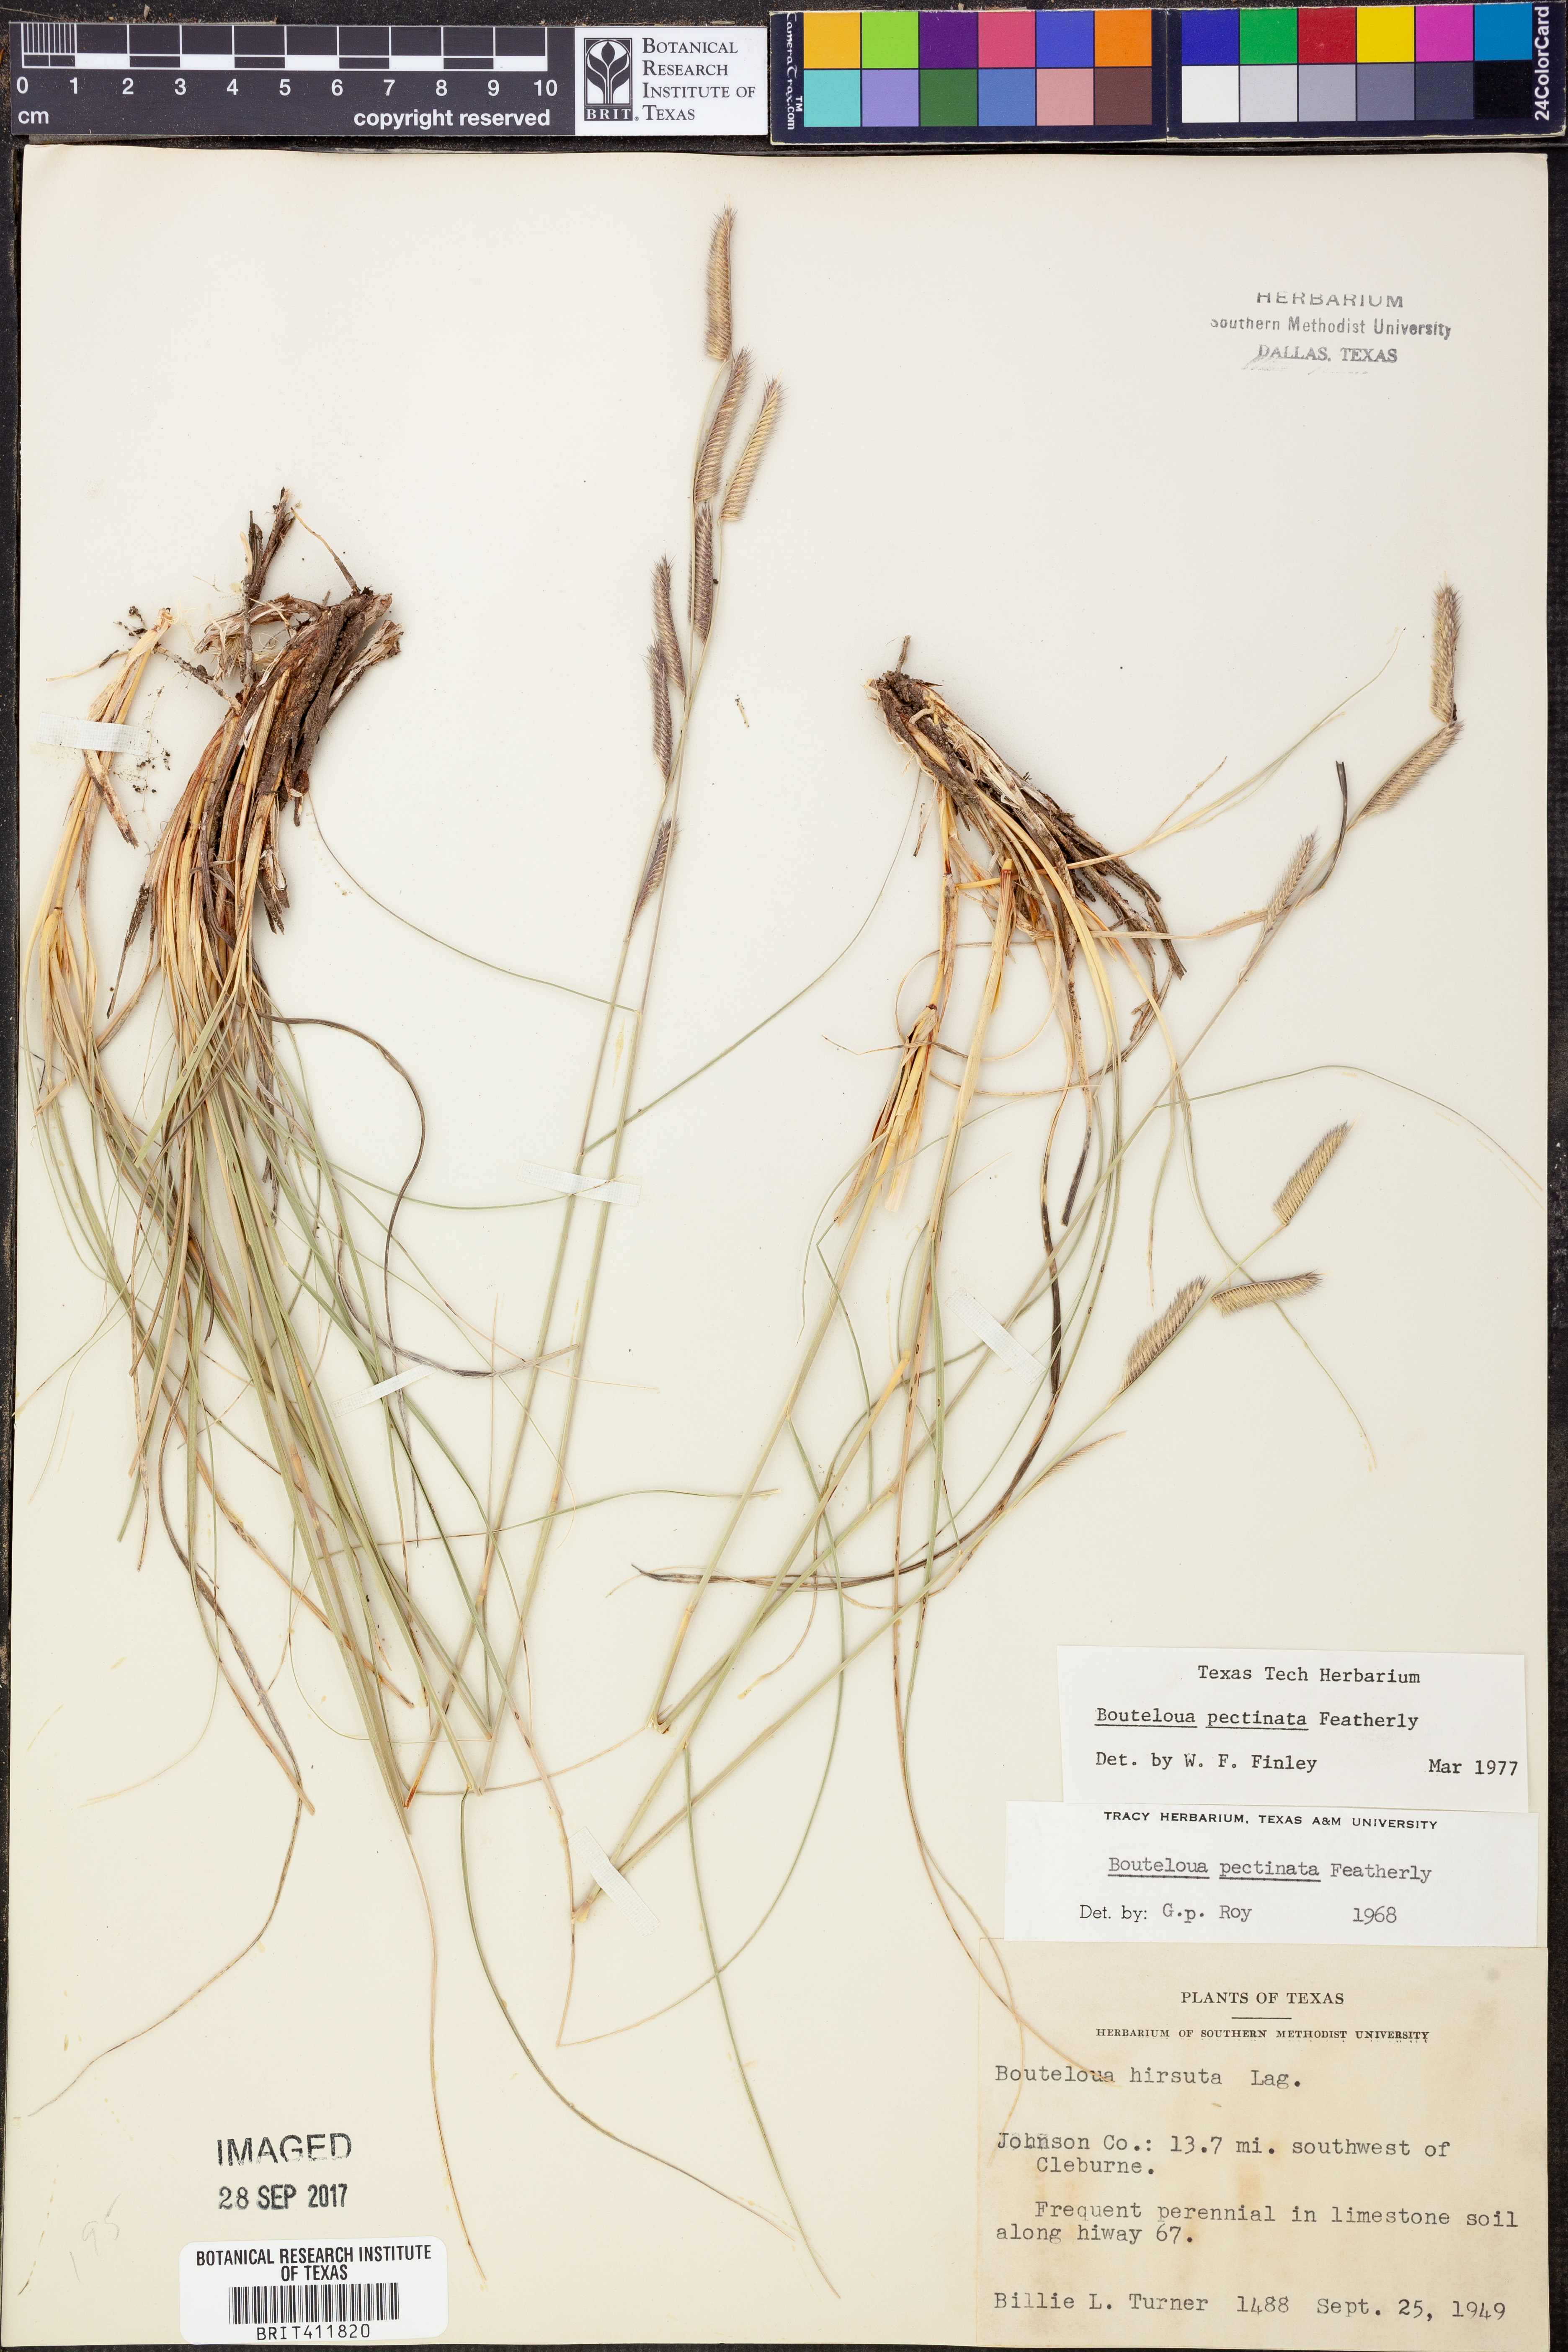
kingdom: Plantae
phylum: Tracheophyta
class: Liliopsida
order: Poales
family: Poaceae
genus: Bouteloua
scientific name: Bouteloua pectinata
